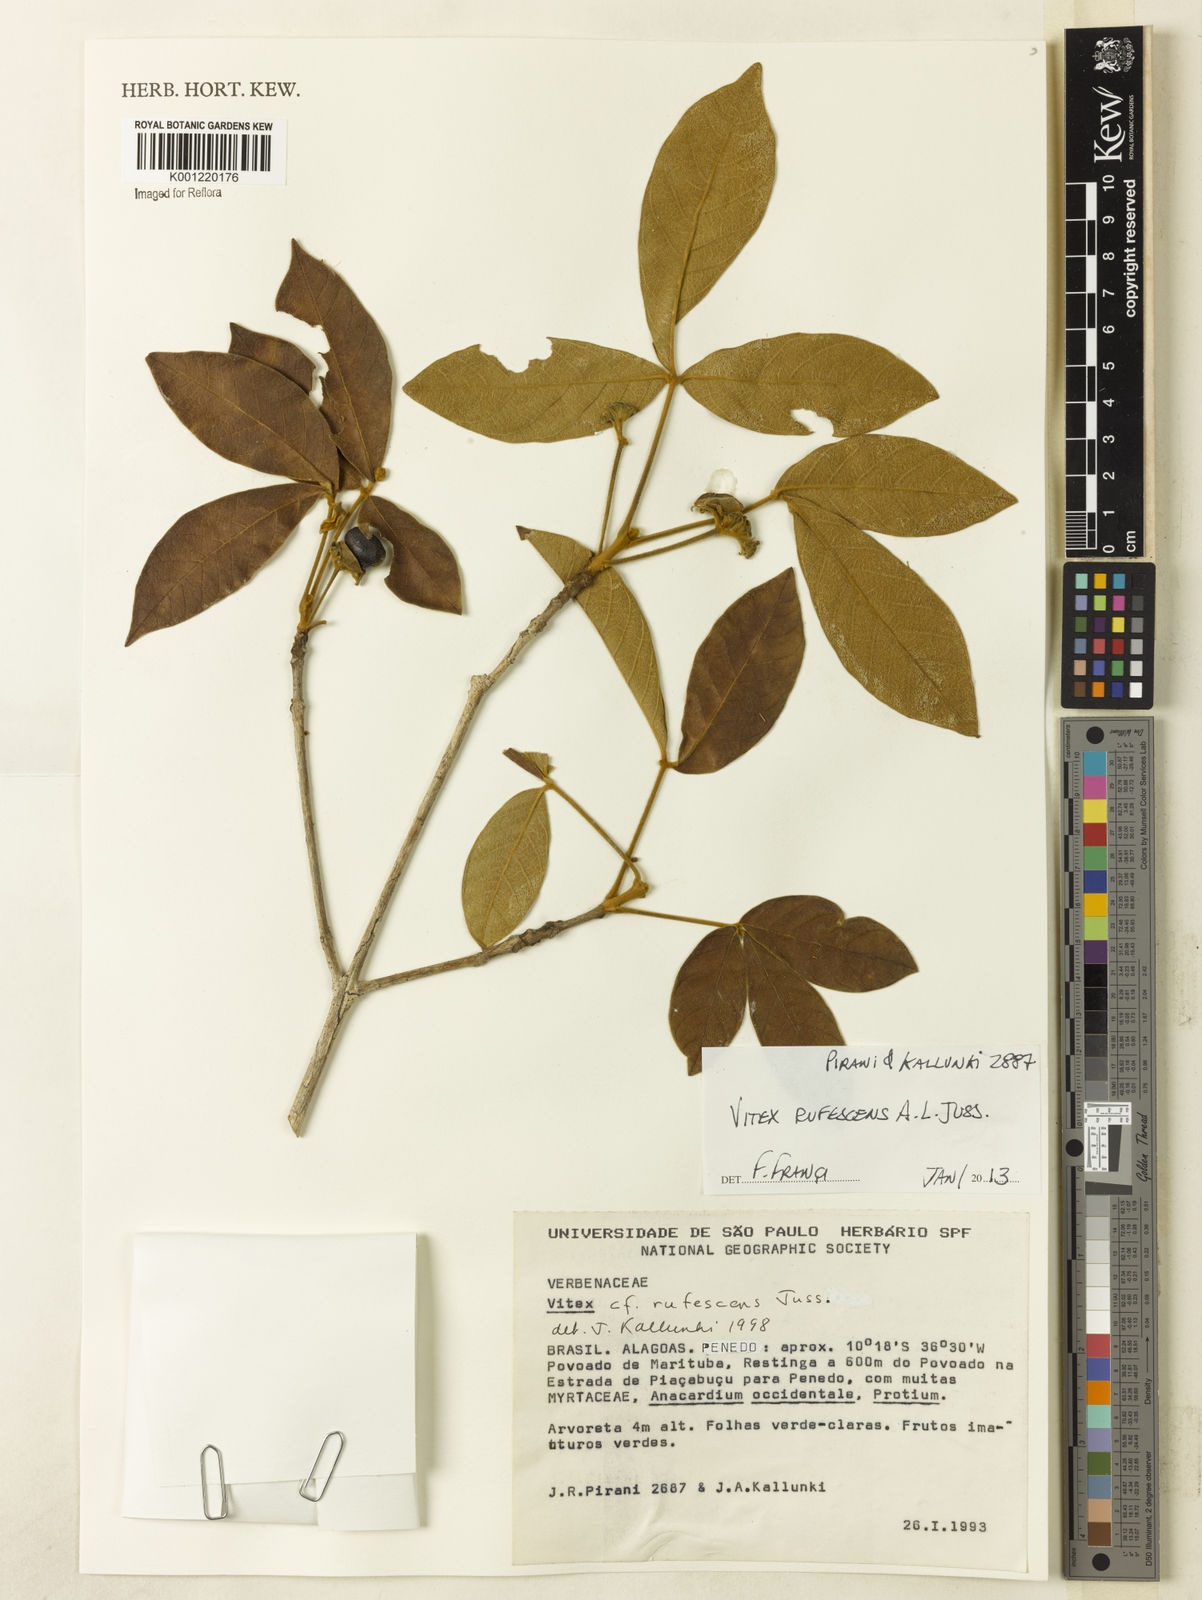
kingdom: Plantae
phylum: Tracheophyta
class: Magnoliopsida
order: Lamiales
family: Lamiaceae
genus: Vitex
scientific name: Vitex rufescens
